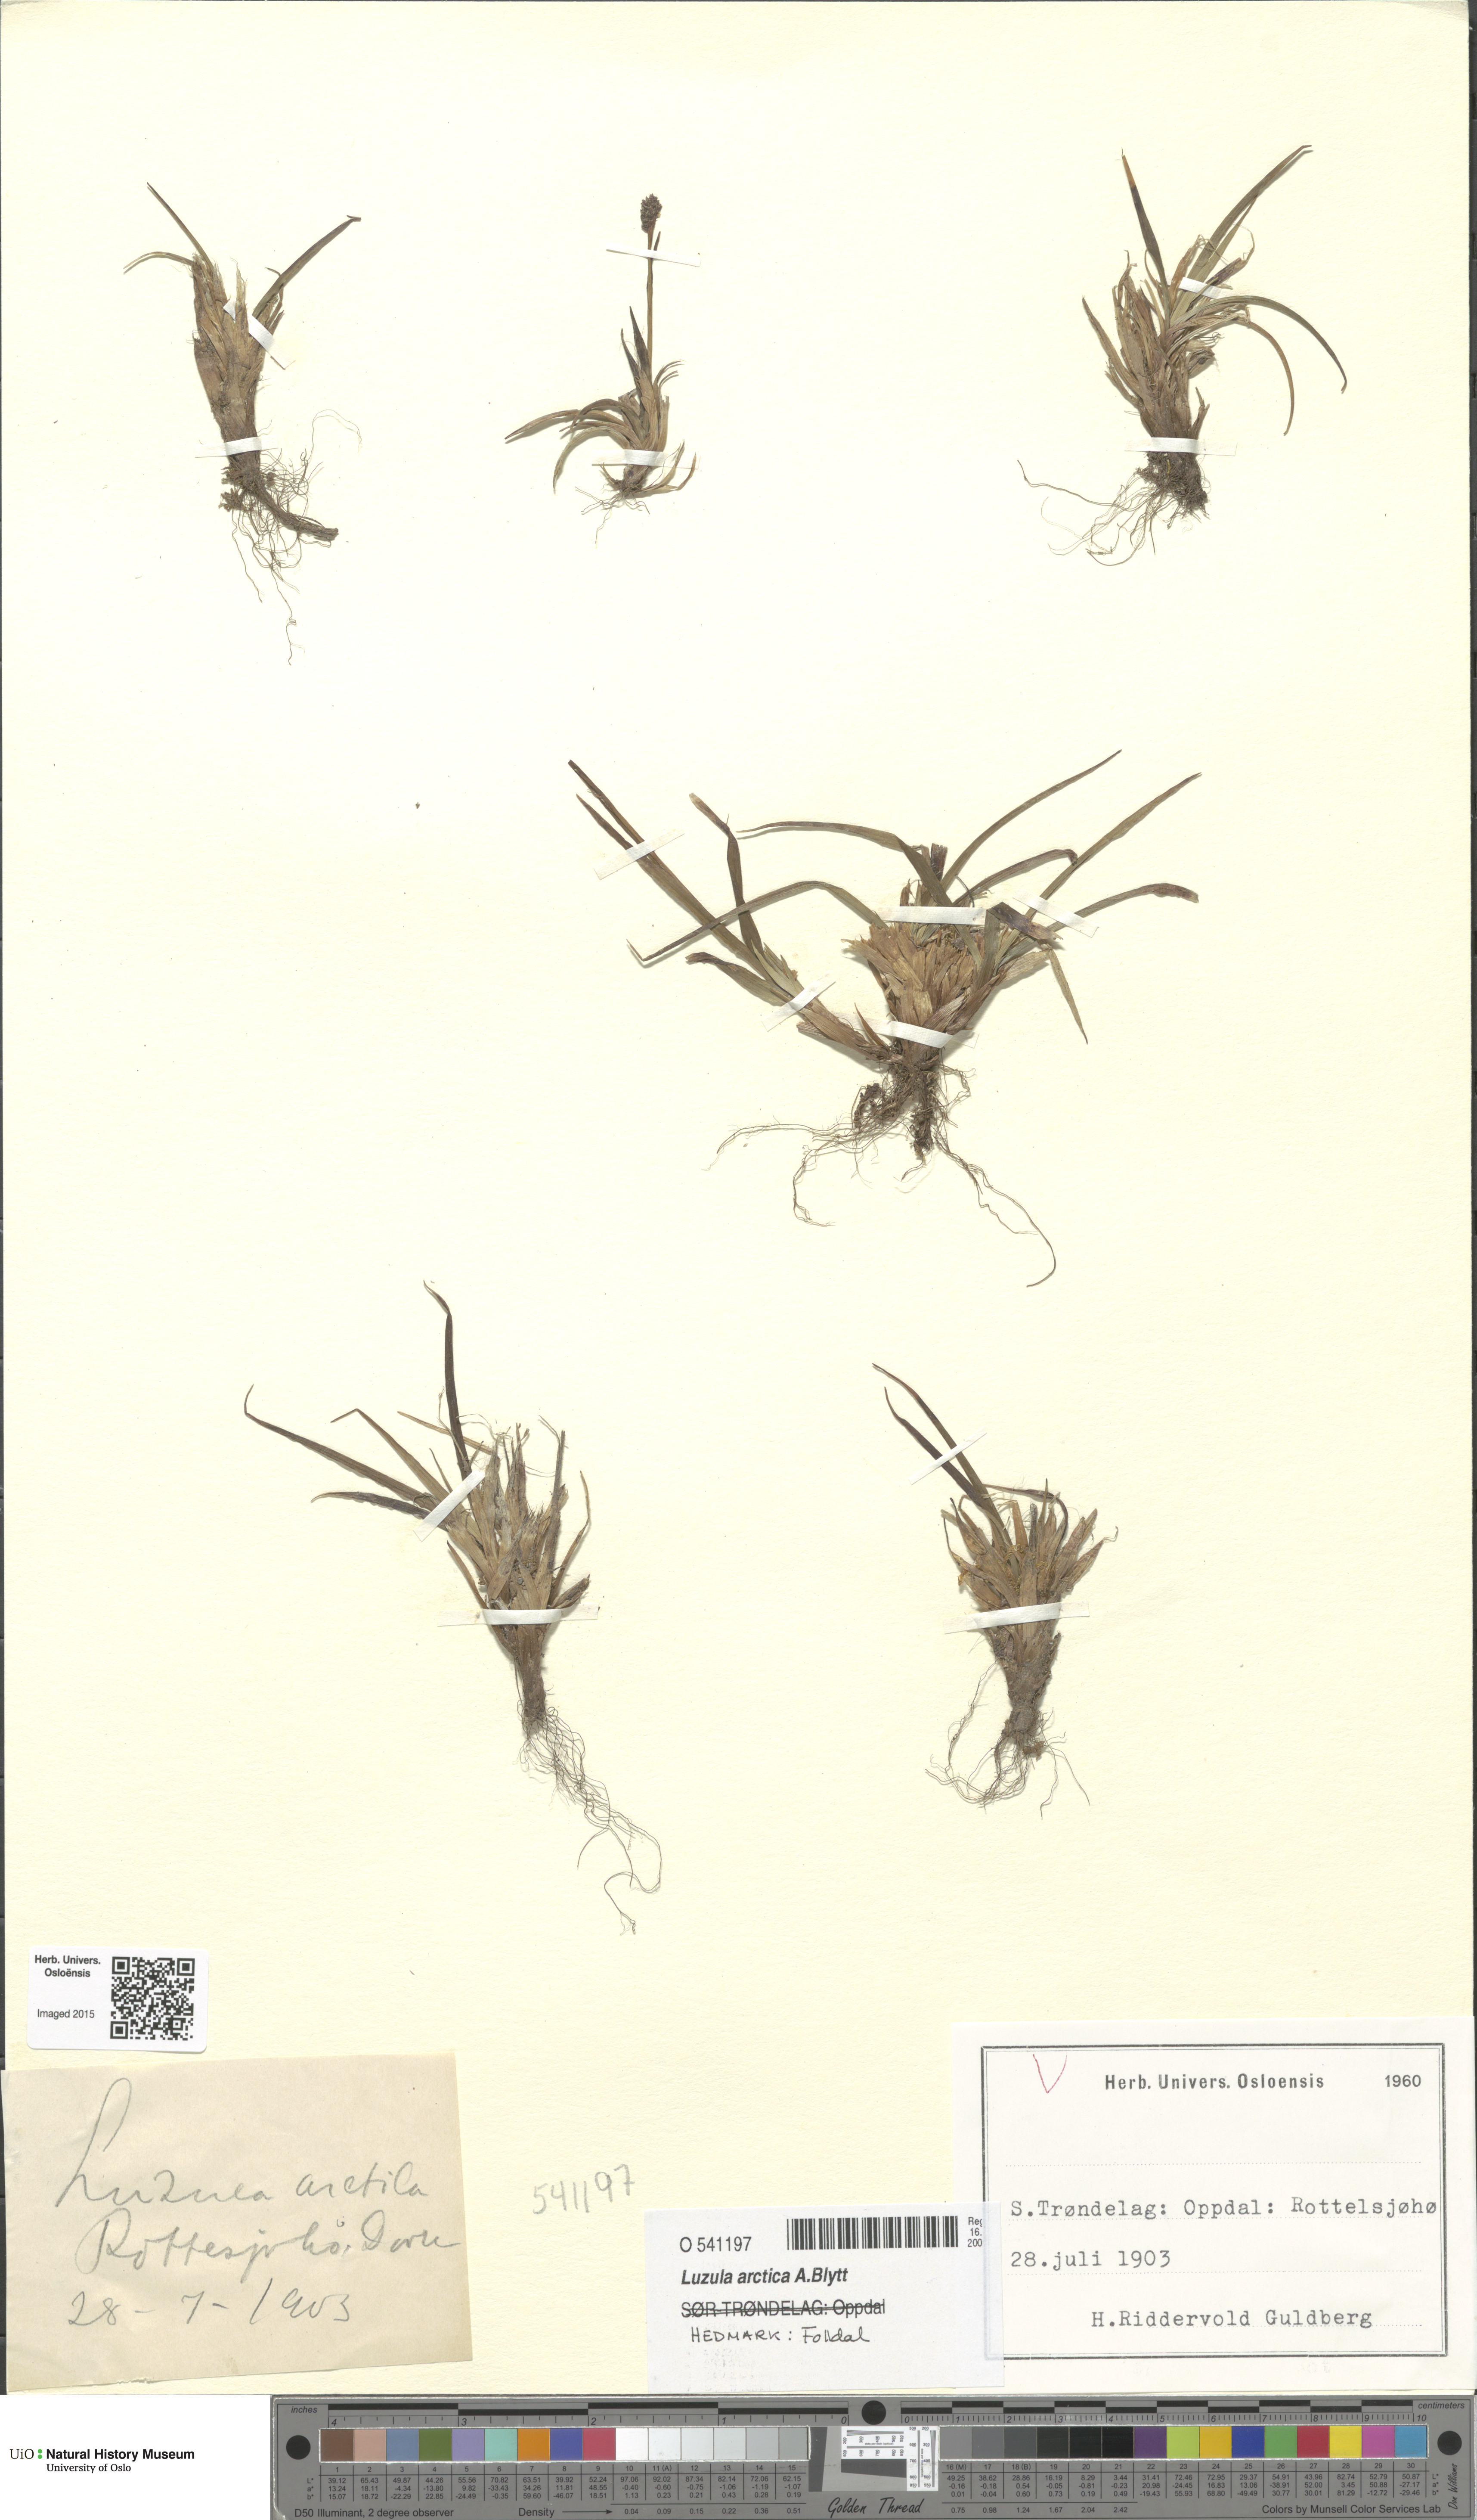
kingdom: Plantae
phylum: Tracheophyta
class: Liliopsida
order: Poales
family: Juncaceae
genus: Luzula
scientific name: Luzula nivalis
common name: Arctic woodrush
